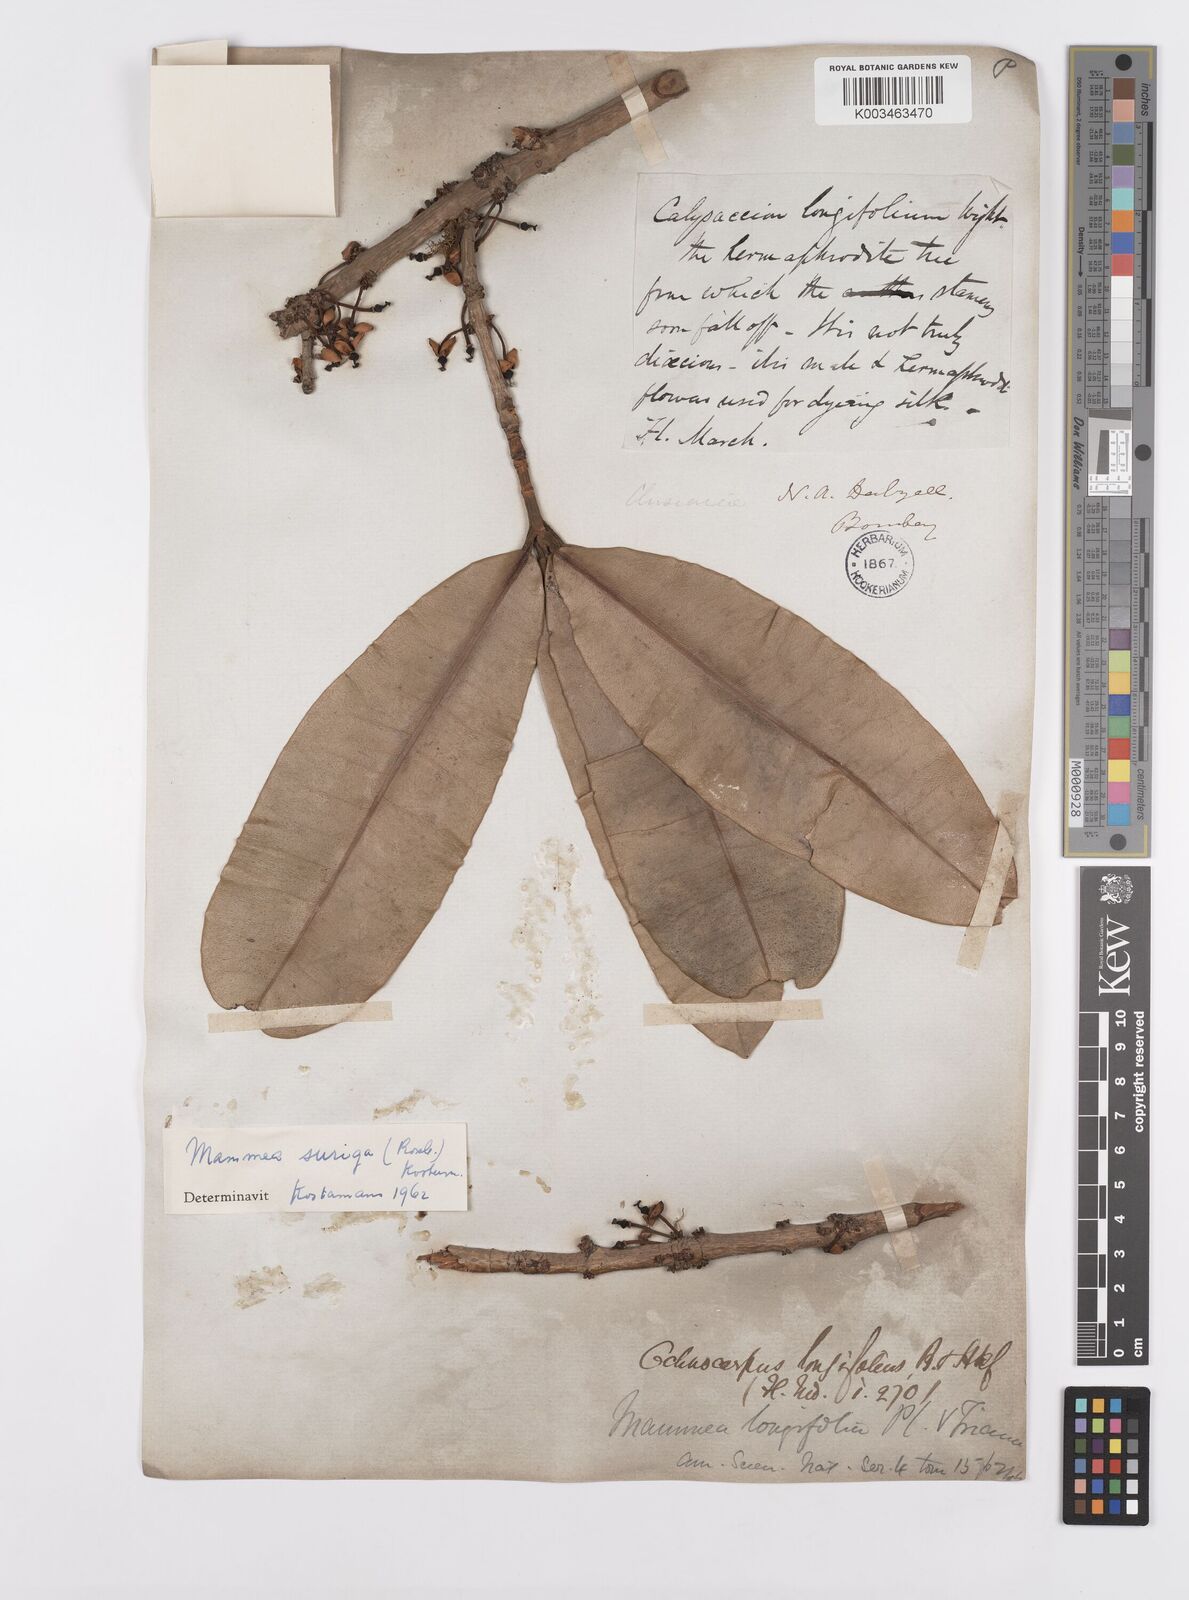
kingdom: Plantae
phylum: Tracheophyta
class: Magnoliopsida
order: Malpighiales
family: Calophyllaceae
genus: Mammea
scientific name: Mammea suriga
